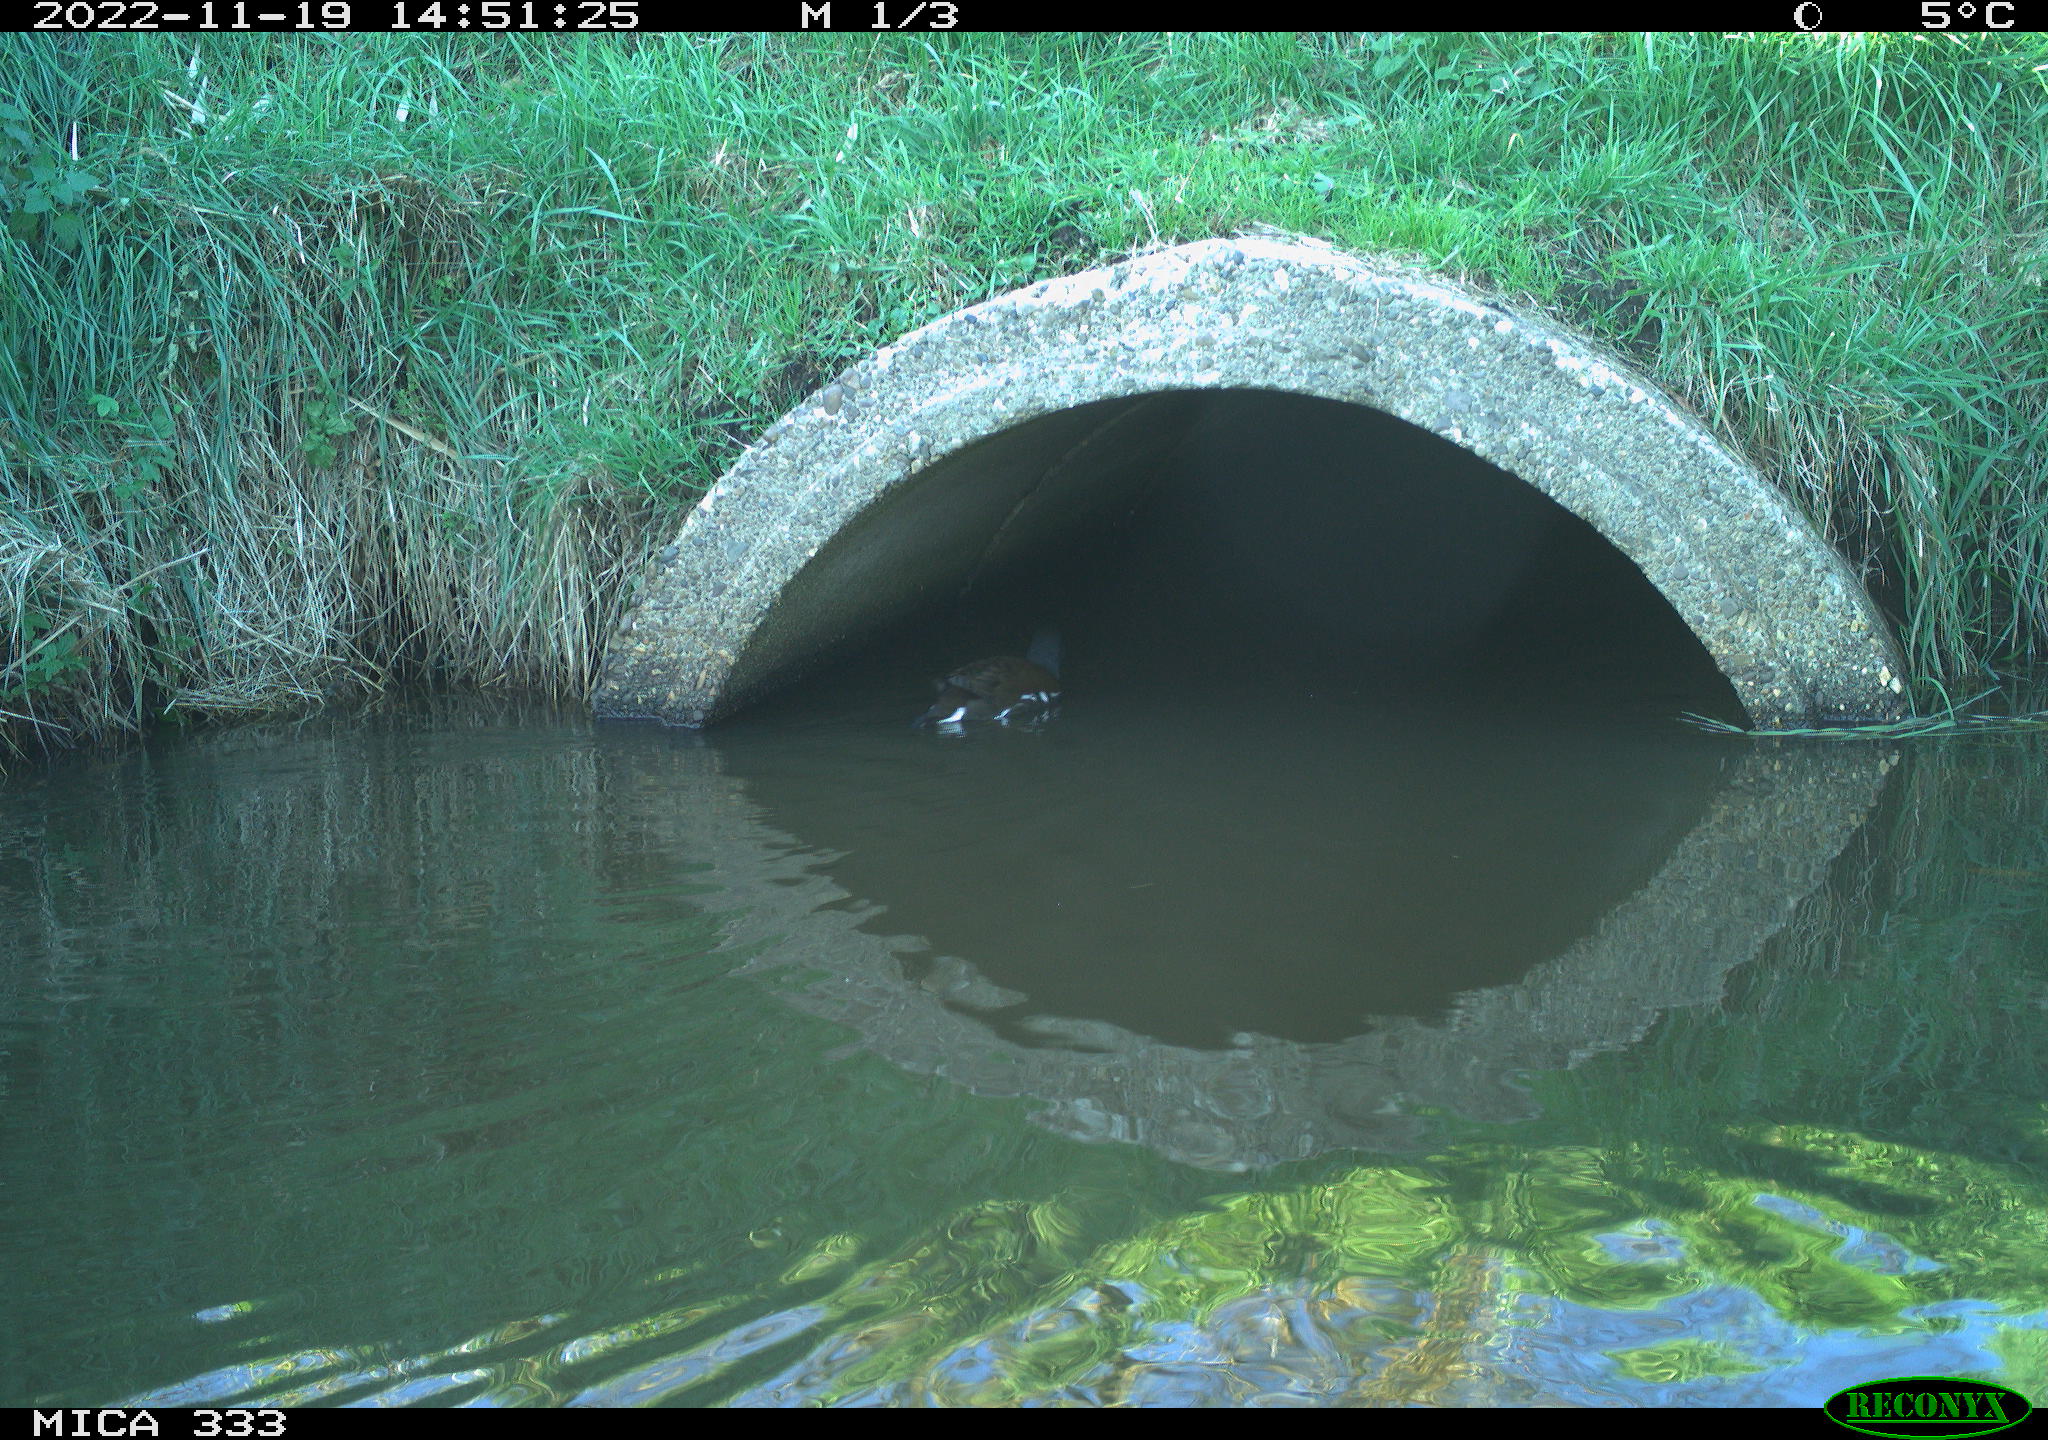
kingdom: Animalia
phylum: Chordata
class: Aves
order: Gruiformes
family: Rallidae
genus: Gallinula
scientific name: Gallinula chloropus
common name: Common moorhen
